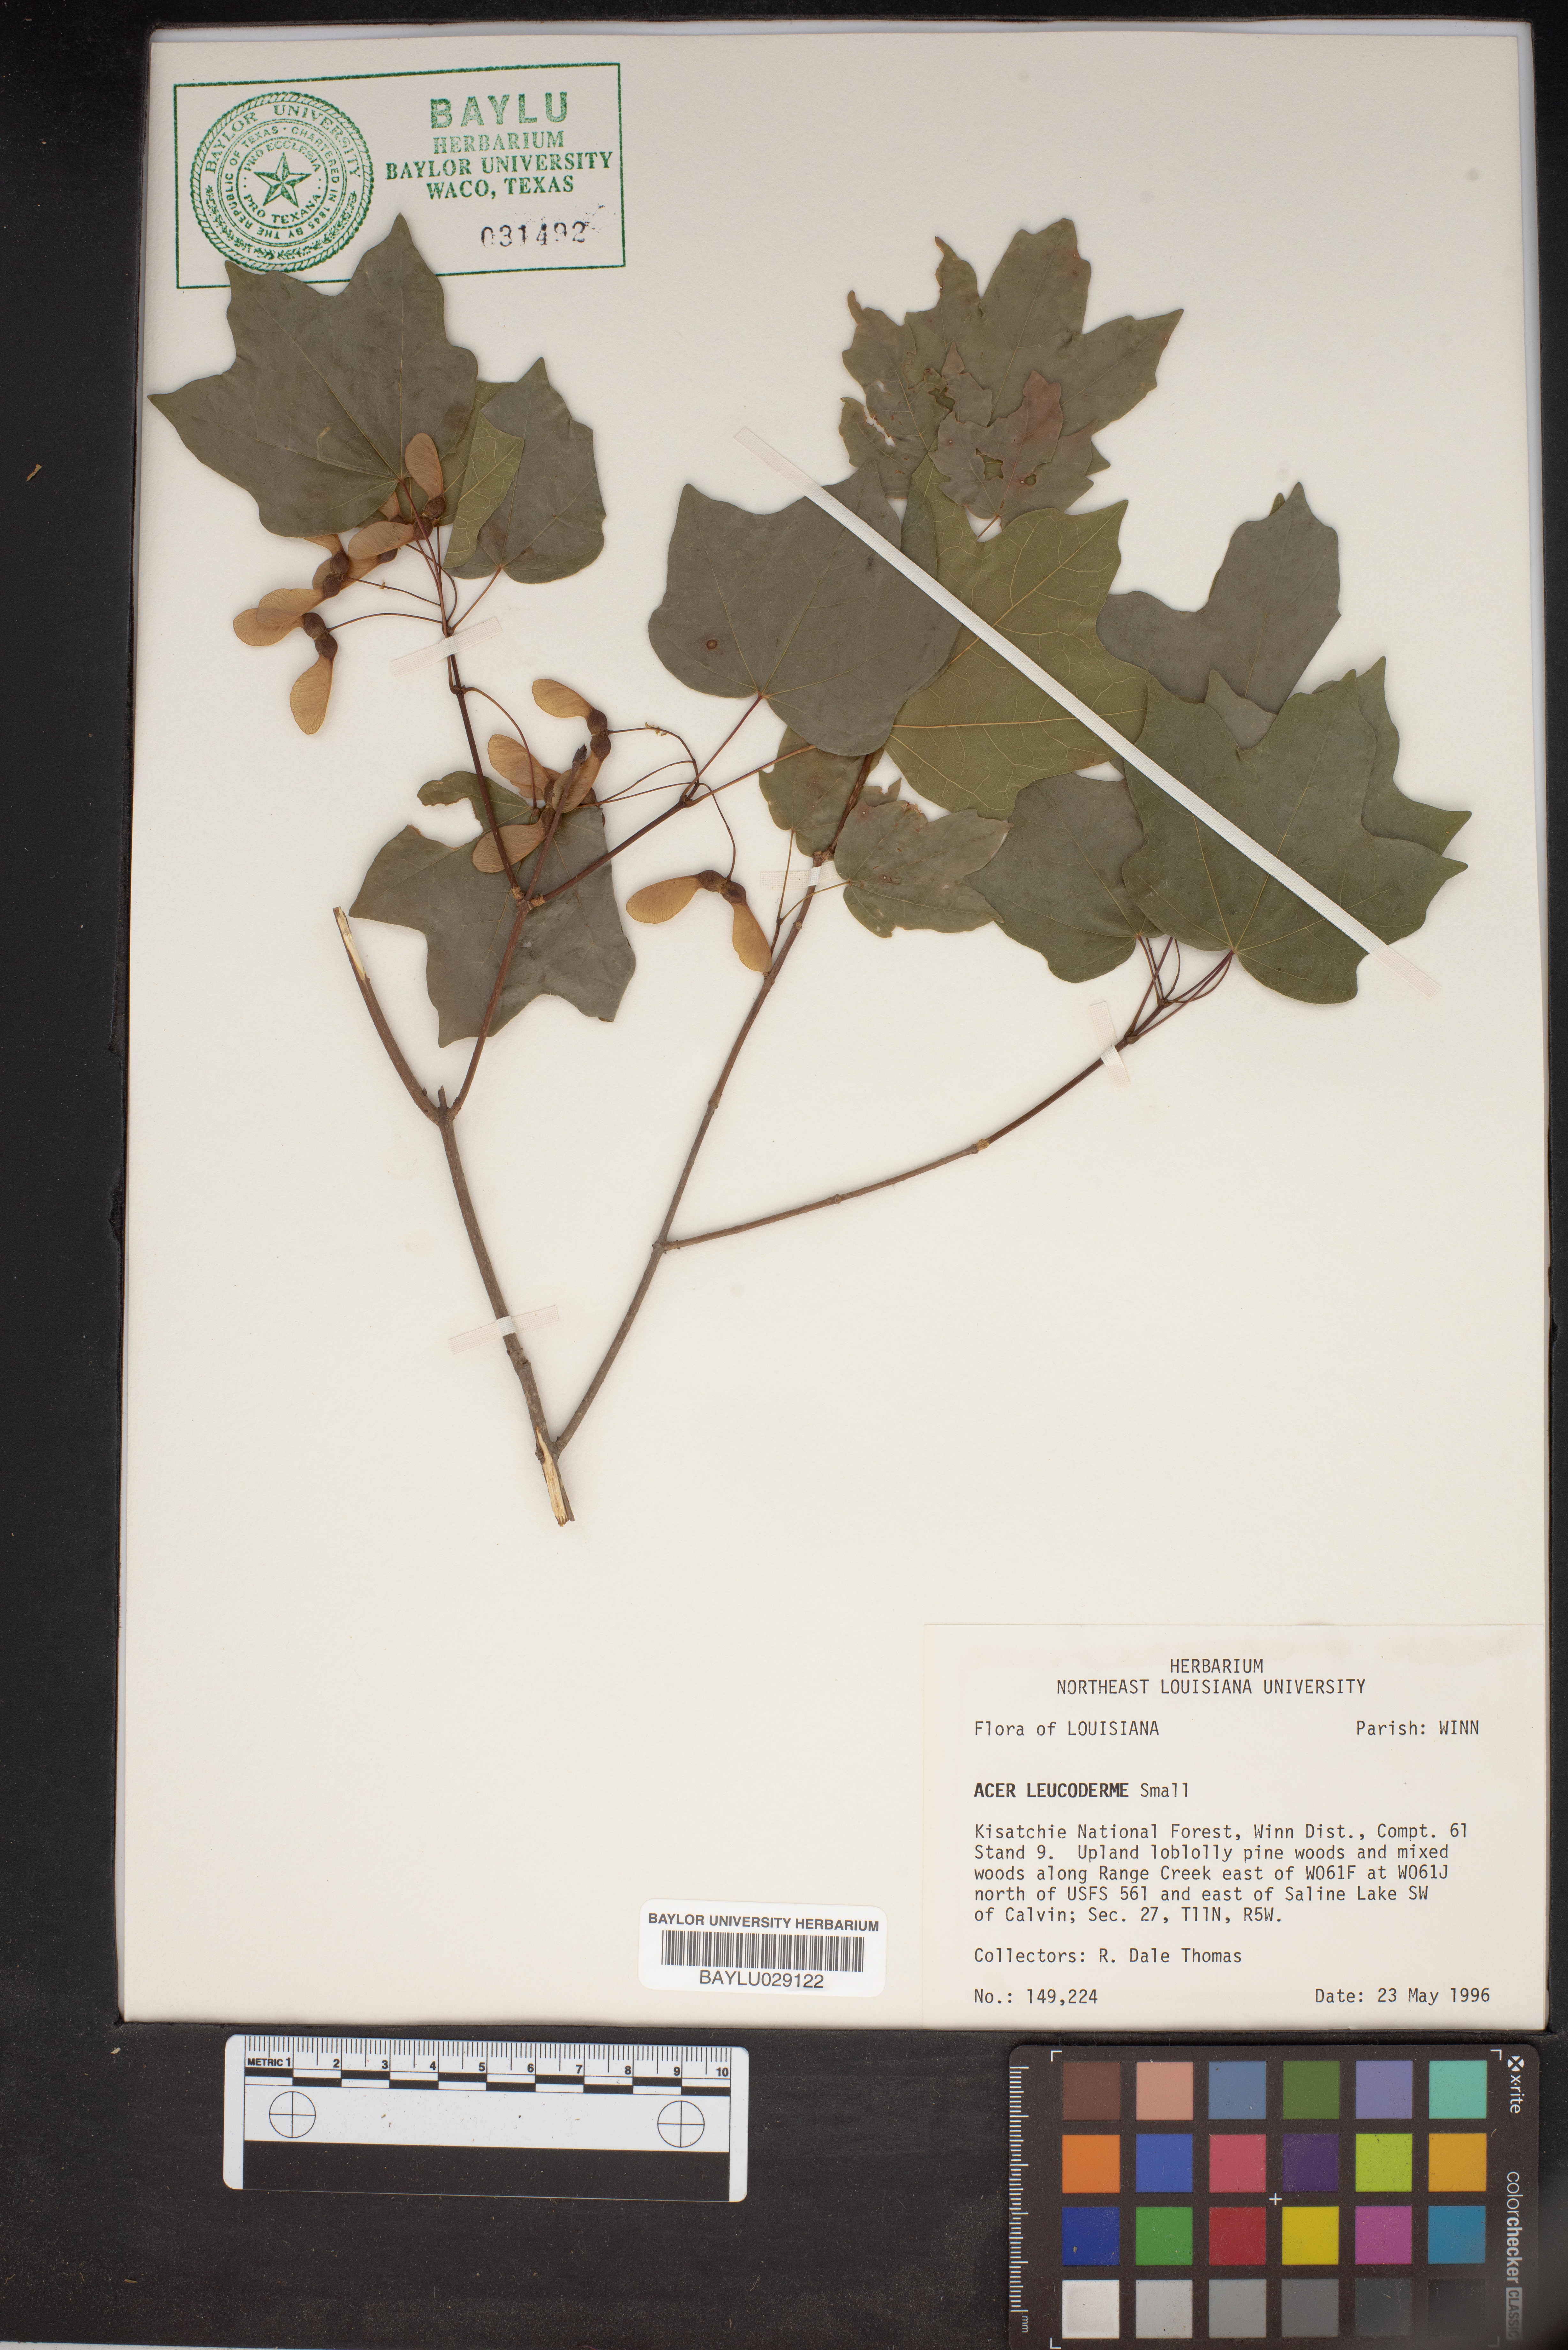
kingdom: Plantae
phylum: Tracheophyta
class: Magnoliopsida
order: Sapindales
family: Sapindaceae
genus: Acer
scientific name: Acer leucoderme
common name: Chalk maple
